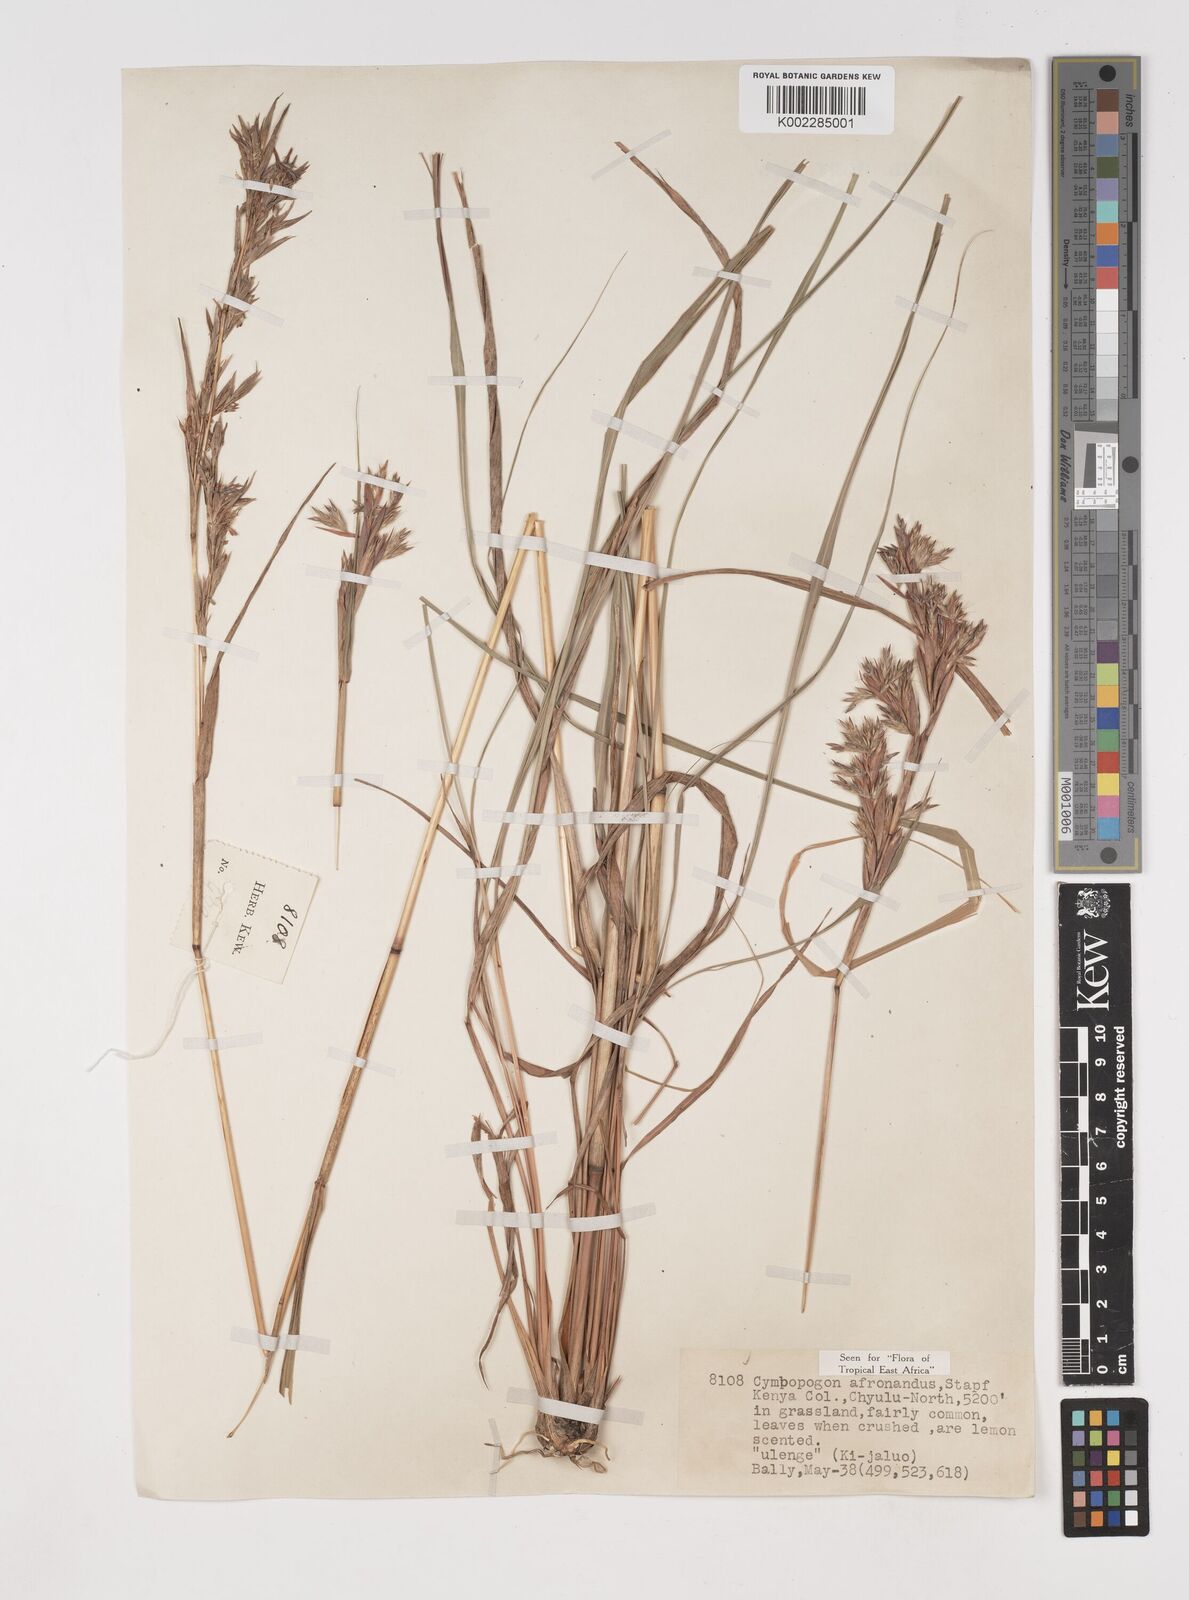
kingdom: Plantae
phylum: Tracheophyta
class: Liliopsida
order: Poales
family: Poaceae
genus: Cymbopogon
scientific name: Cymbopogon nardus
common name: Giant turpentine grass
